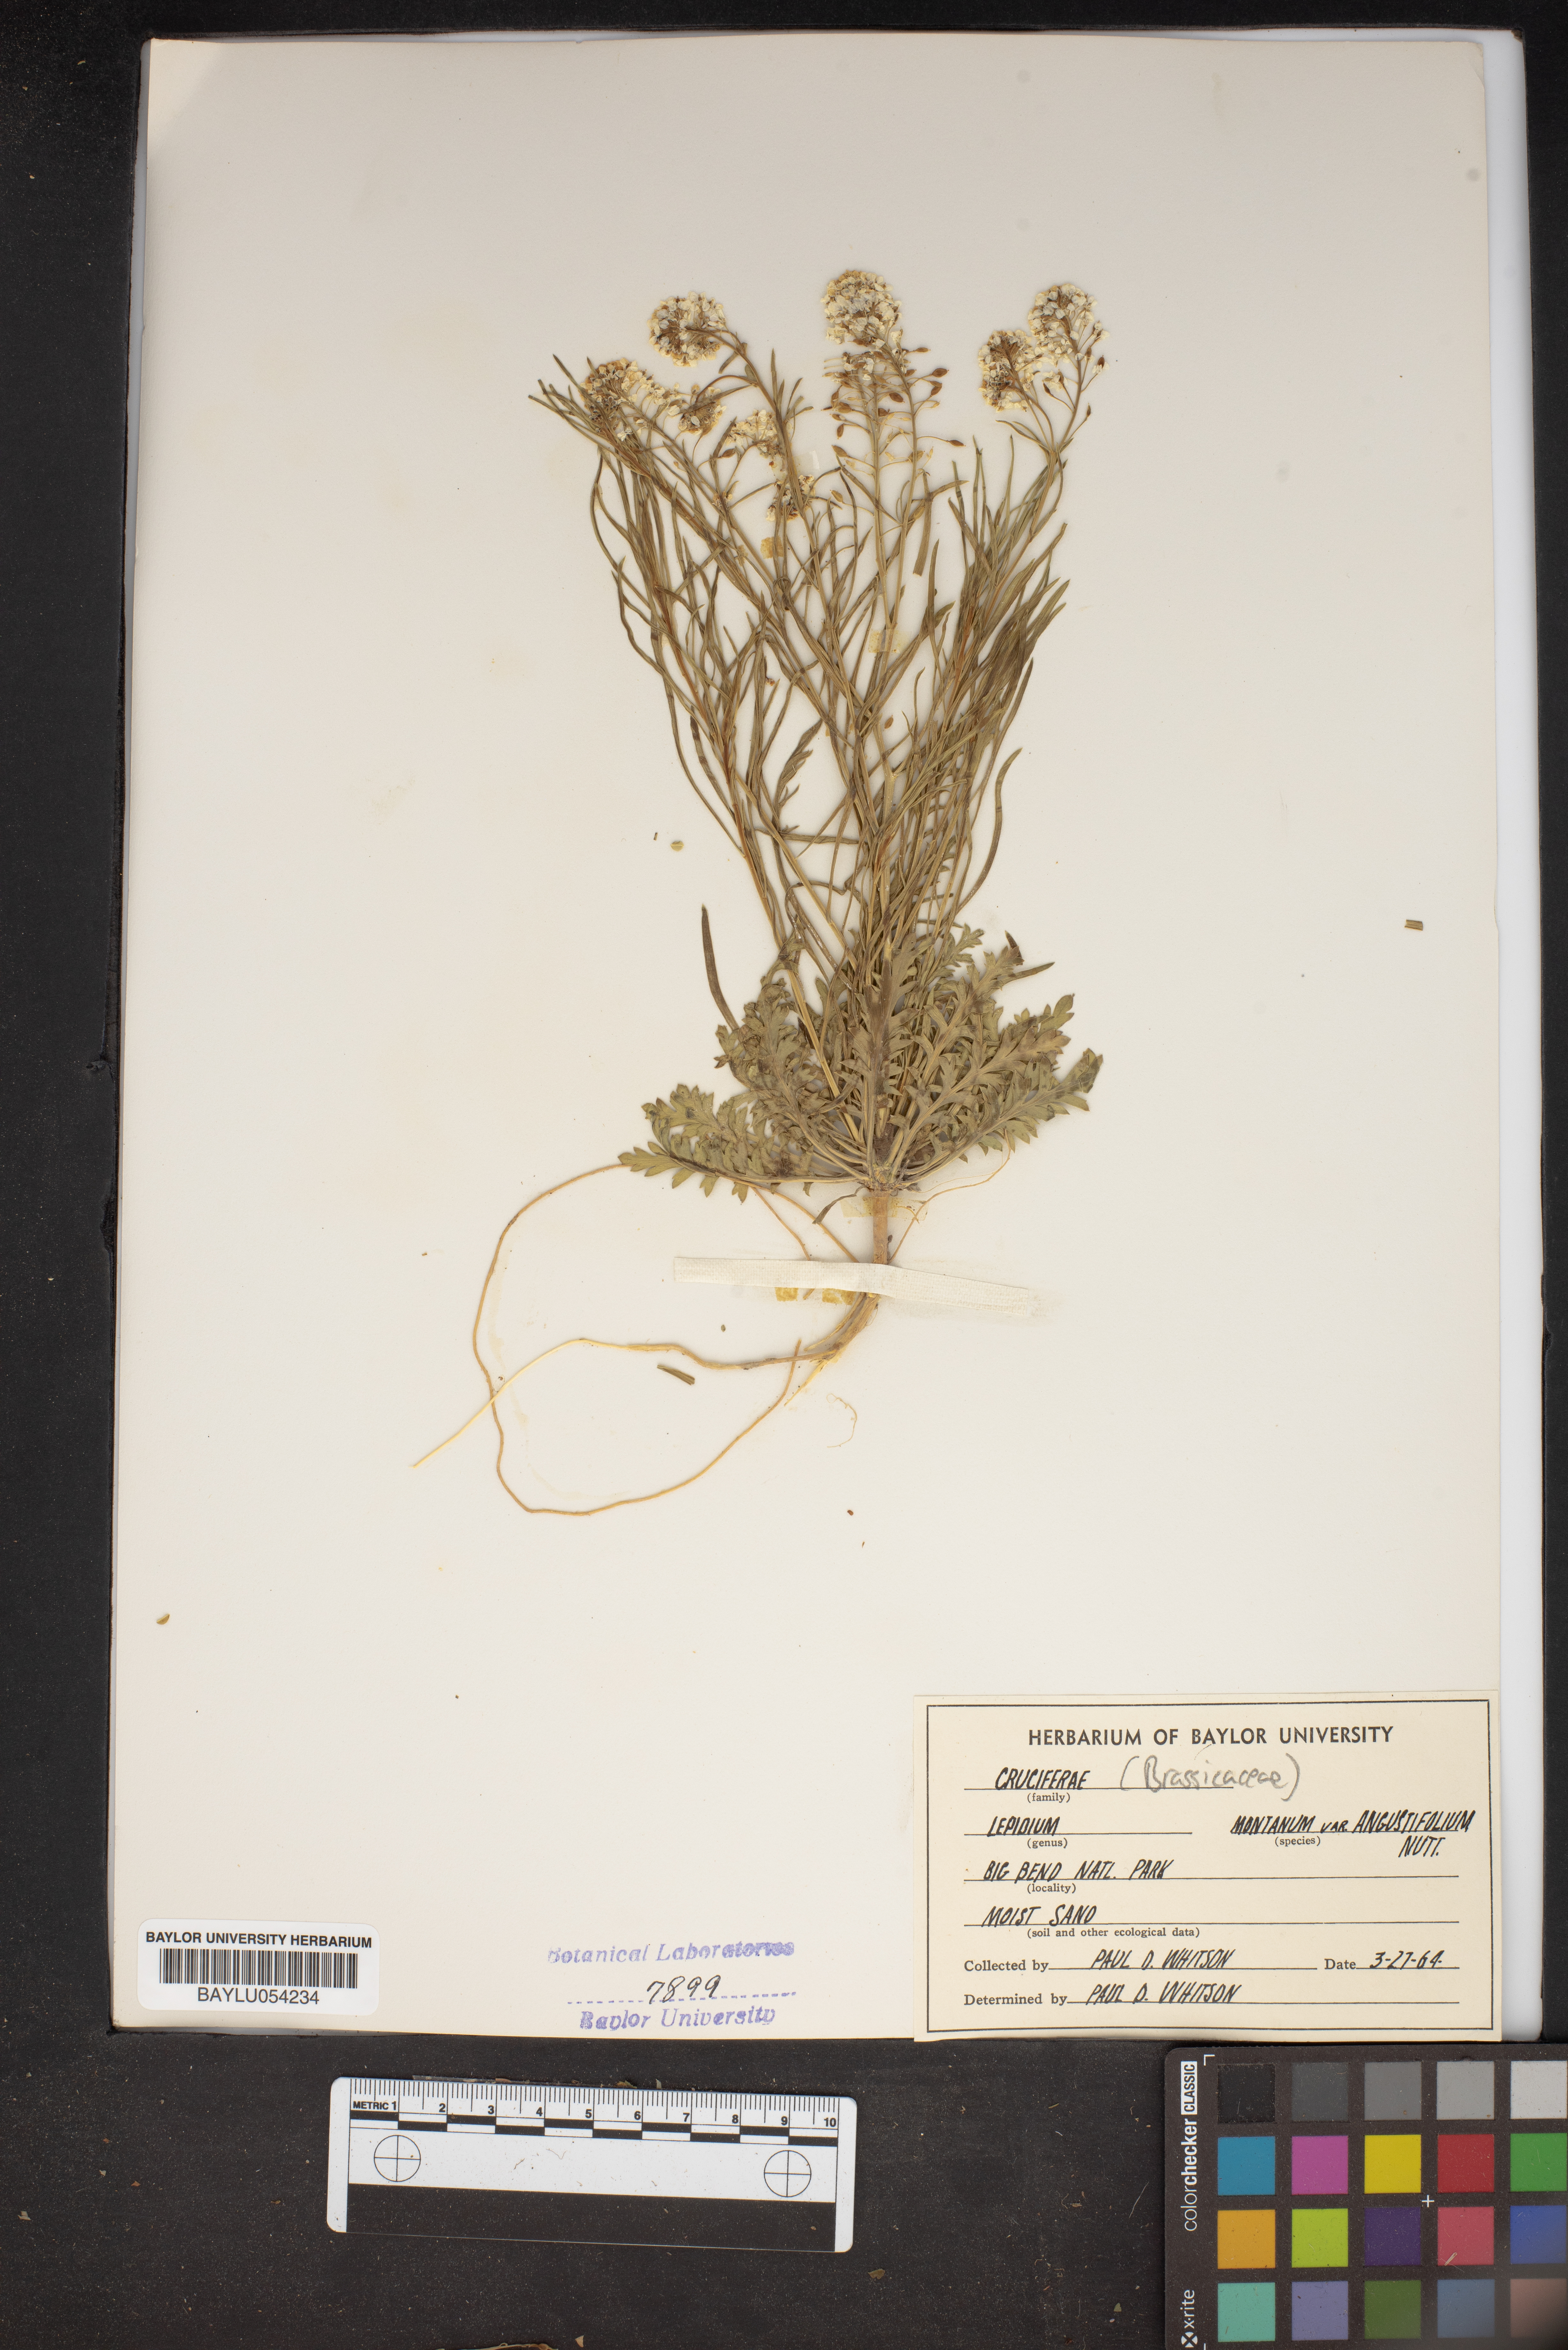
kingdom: Plantae
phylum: Tracheophyta
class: Magnoliopsida
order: Brassicales
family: Brassicaceae
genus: Lepidium
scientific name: Lepidium alyssoides
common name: Mesa pepperweed
